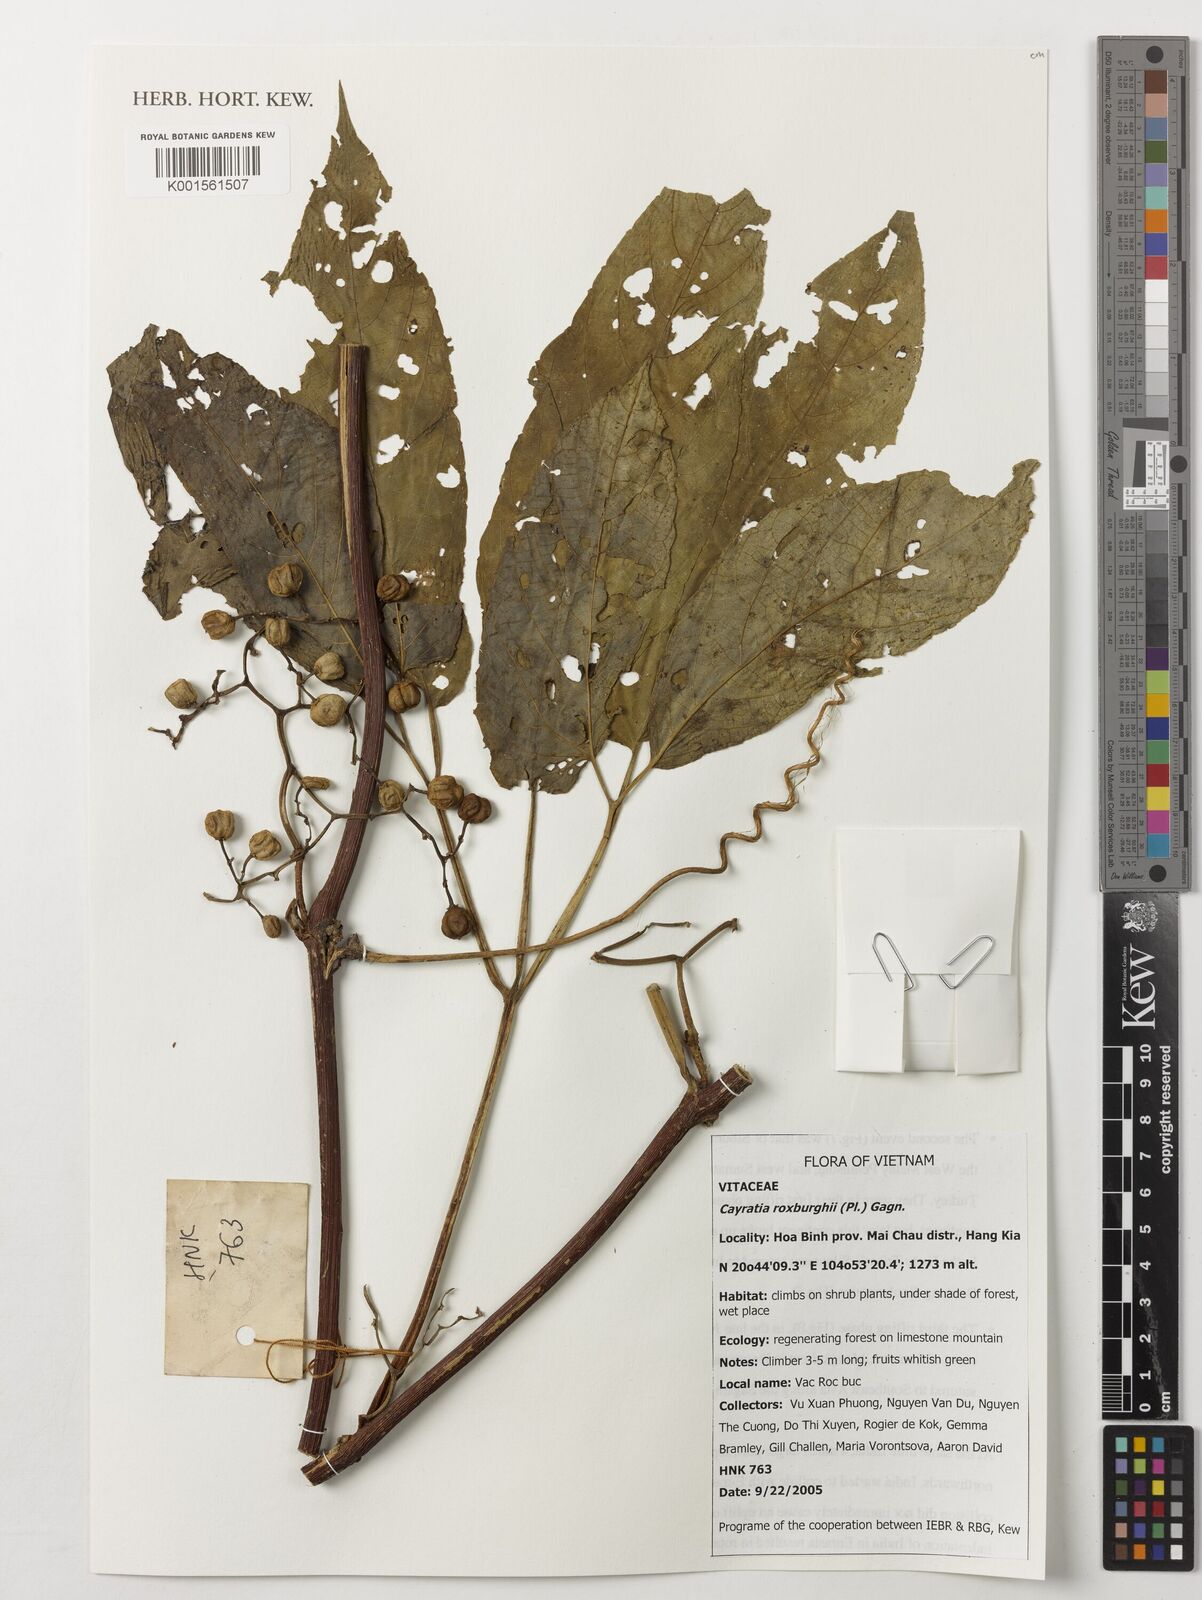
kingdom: Plantae
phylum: Tracheophyta
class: Magnoliopsida
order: Vitales
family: Vitaceae
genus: Cayratia
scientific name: Cayratia roxburghii
